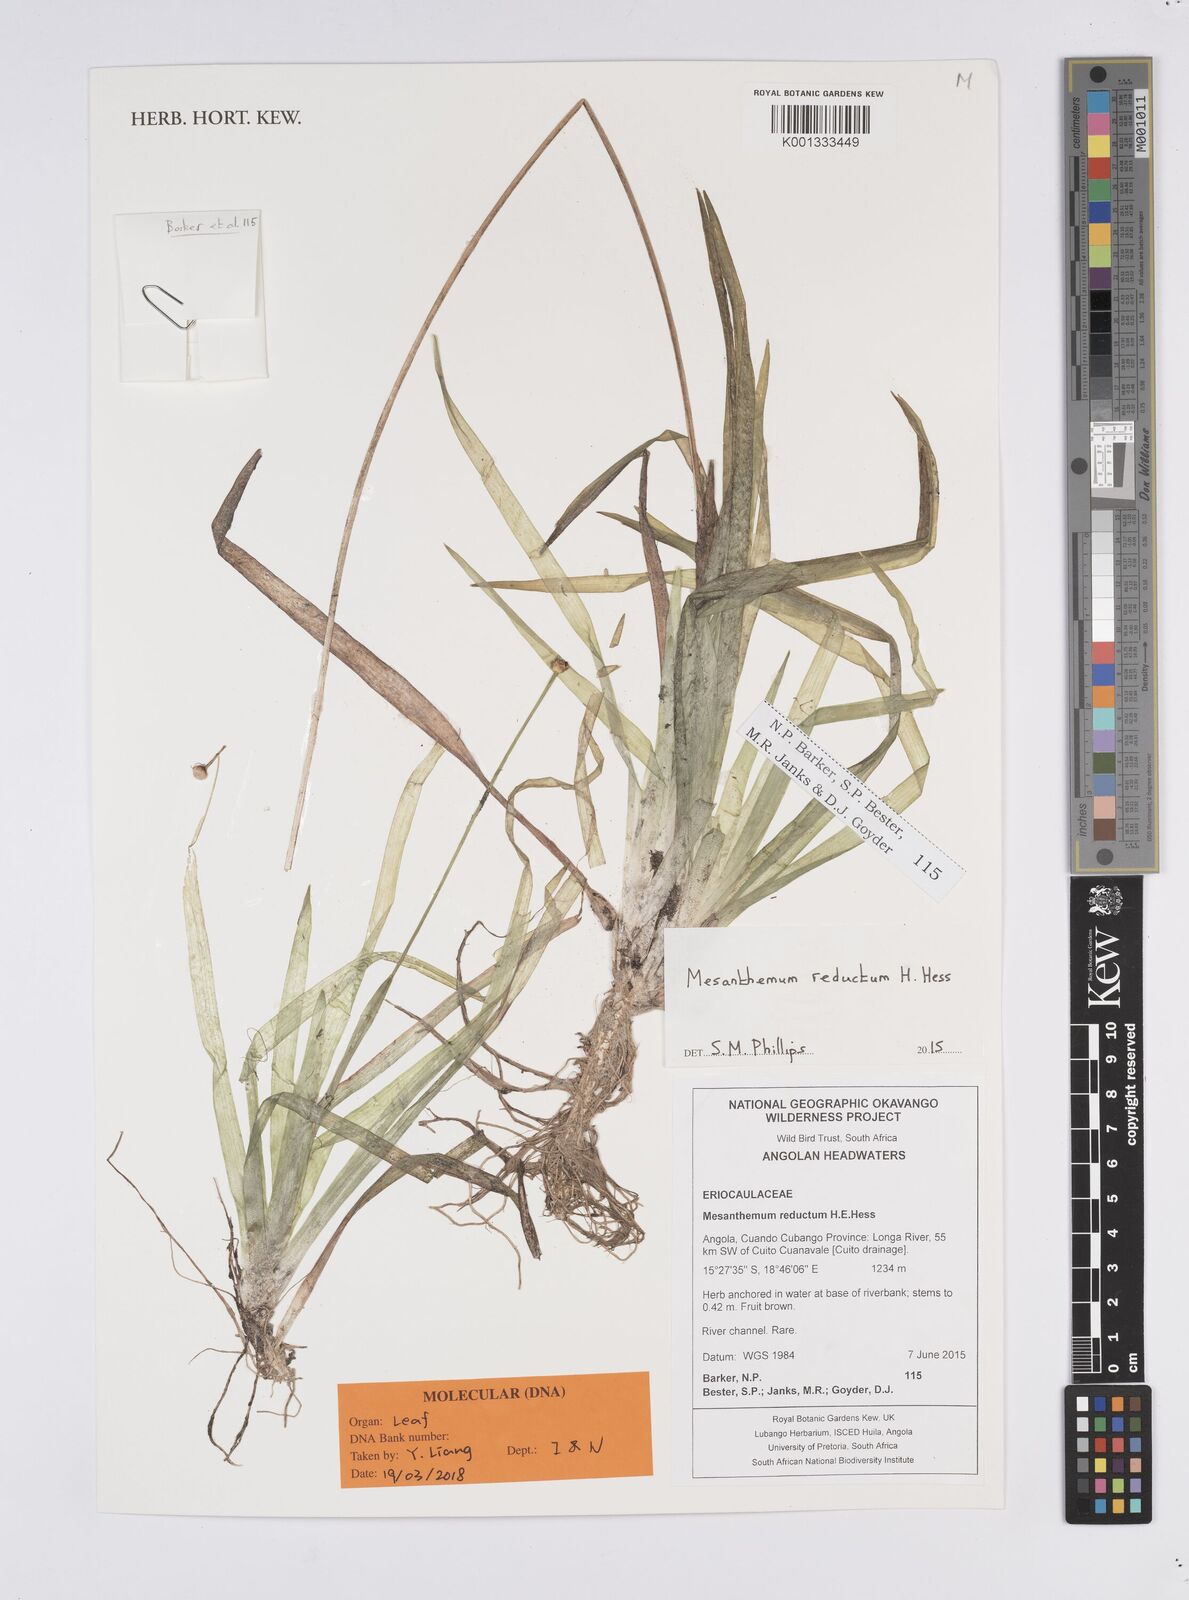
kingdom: Plantae
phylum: Tracheophyta
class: Liliopsida
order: Poales
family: Eriocaulaceae
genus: Mesanthemum
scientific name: Mesanthemum reductum
